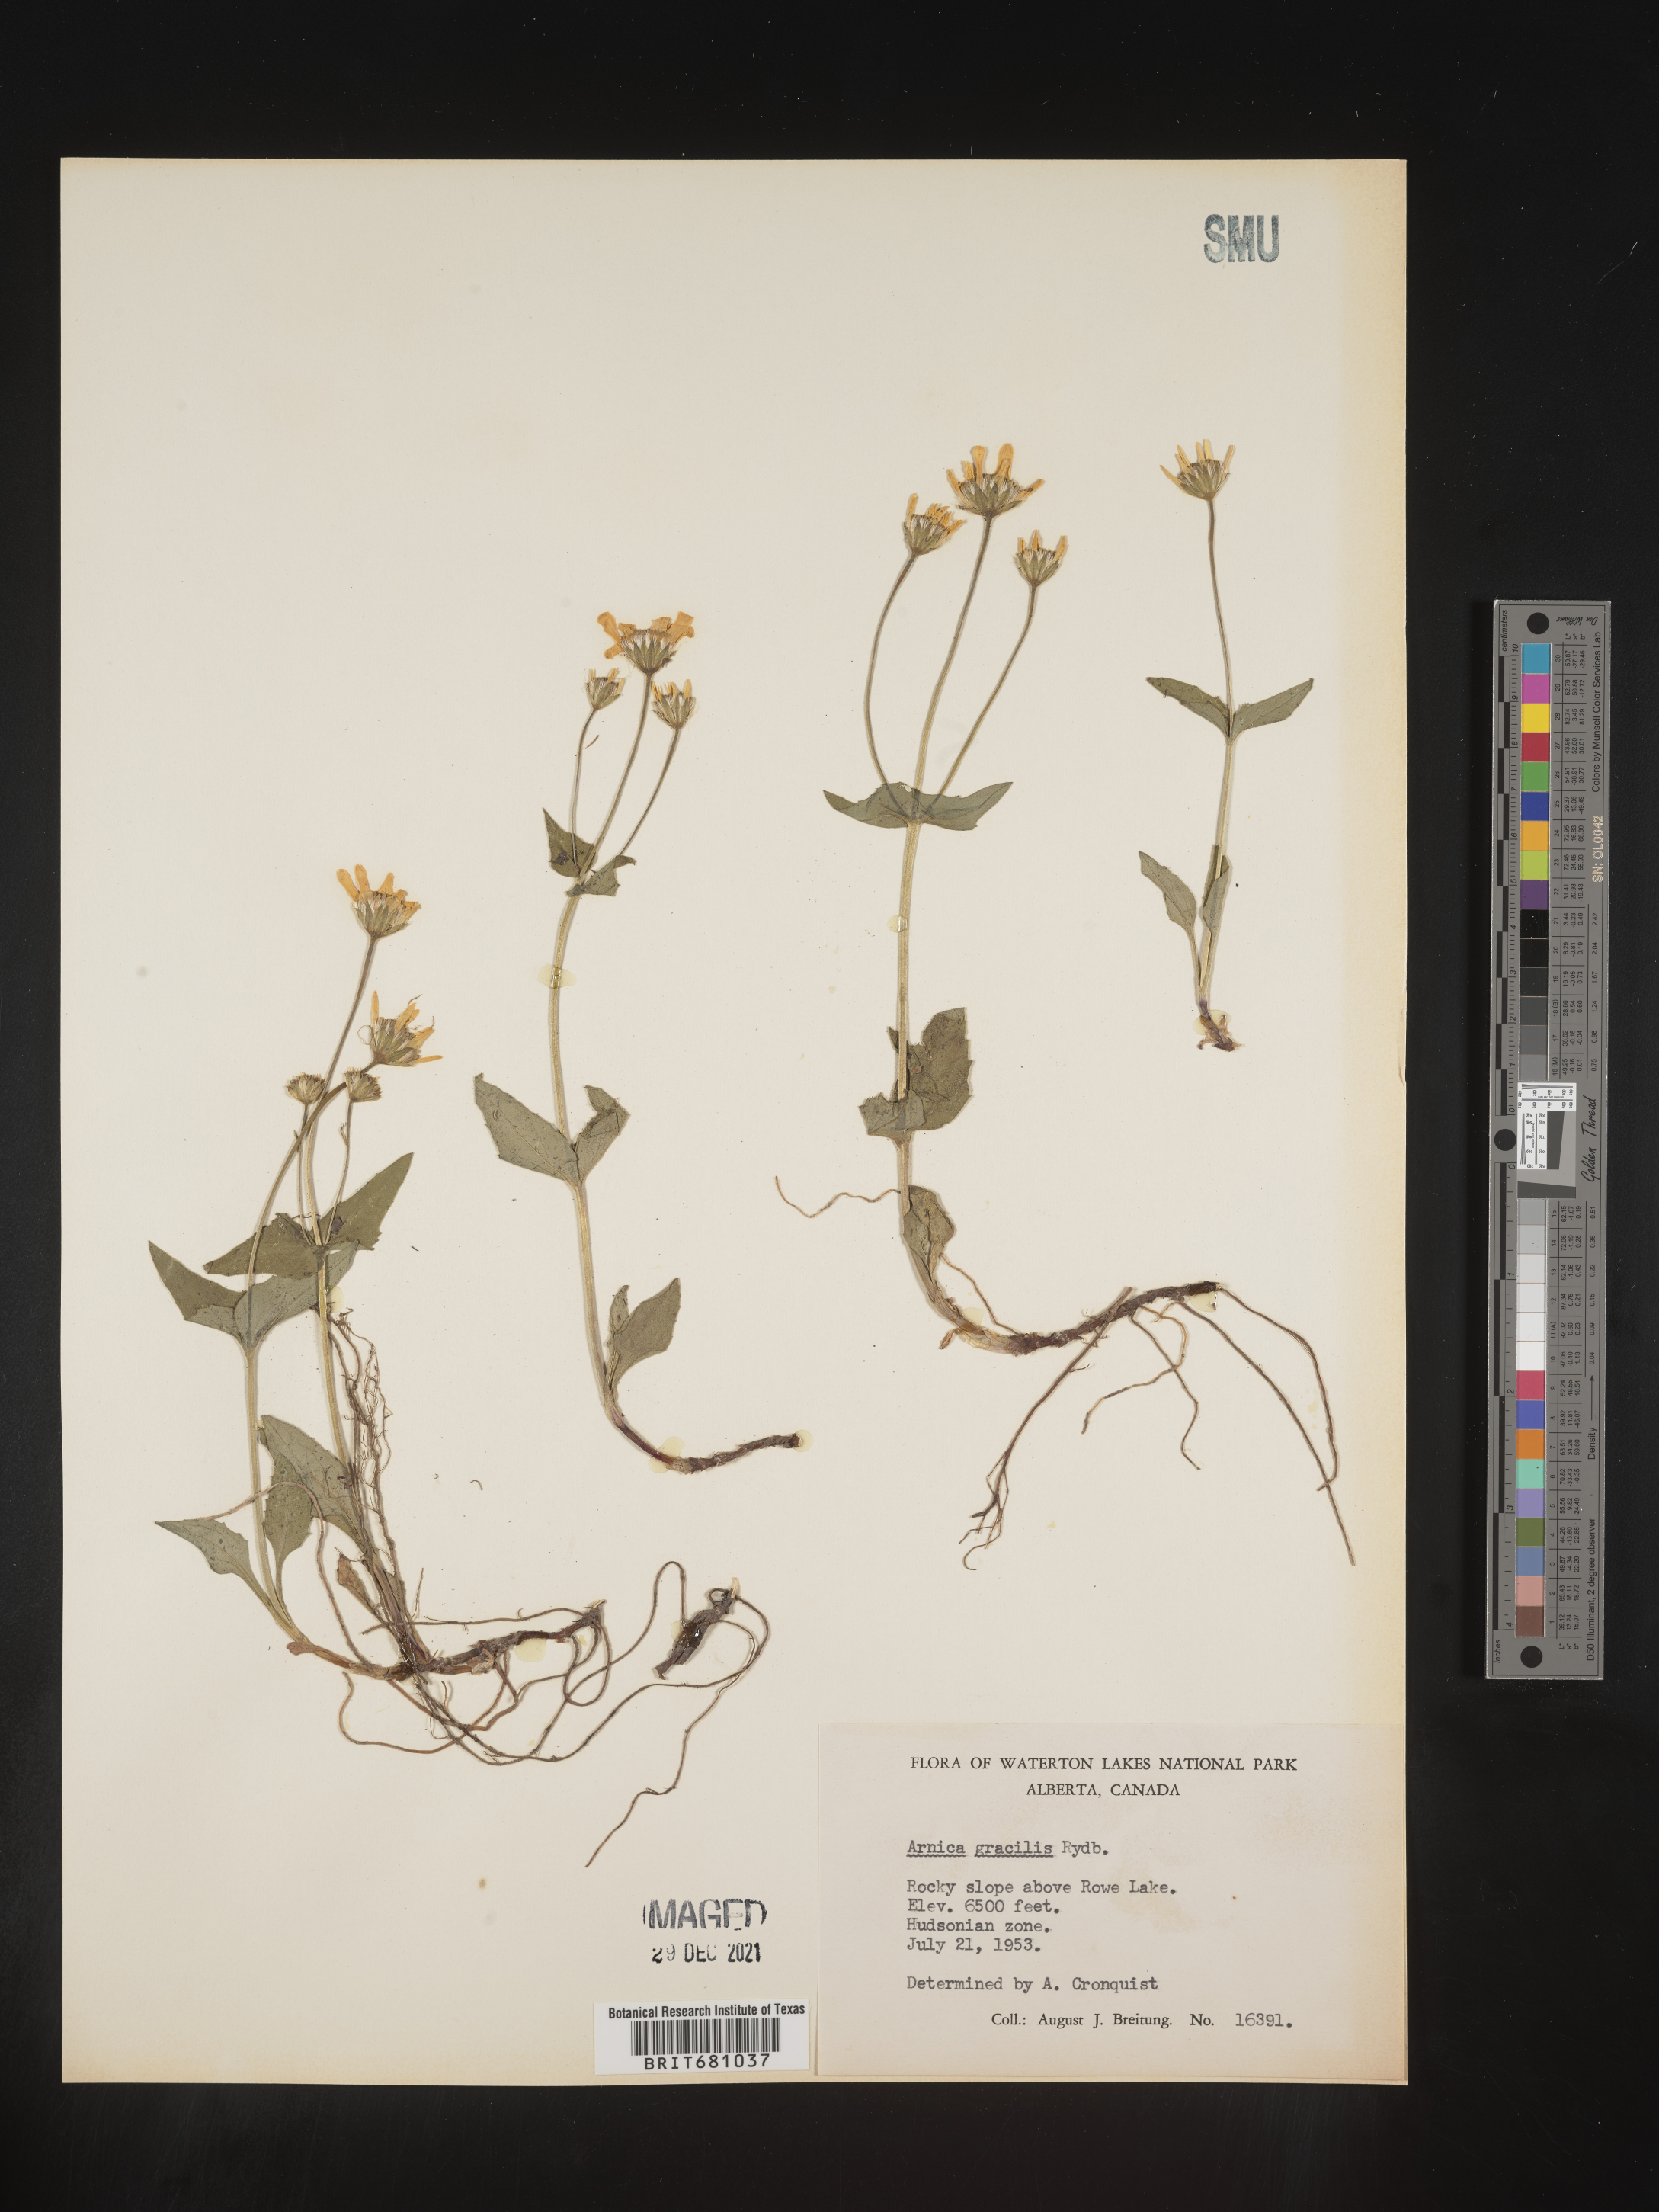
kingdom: Plantae
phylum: Tracheophyta
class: Magnoliopsida
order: Asterales
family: Asteraceae
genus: Arnica
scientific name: Arnica
